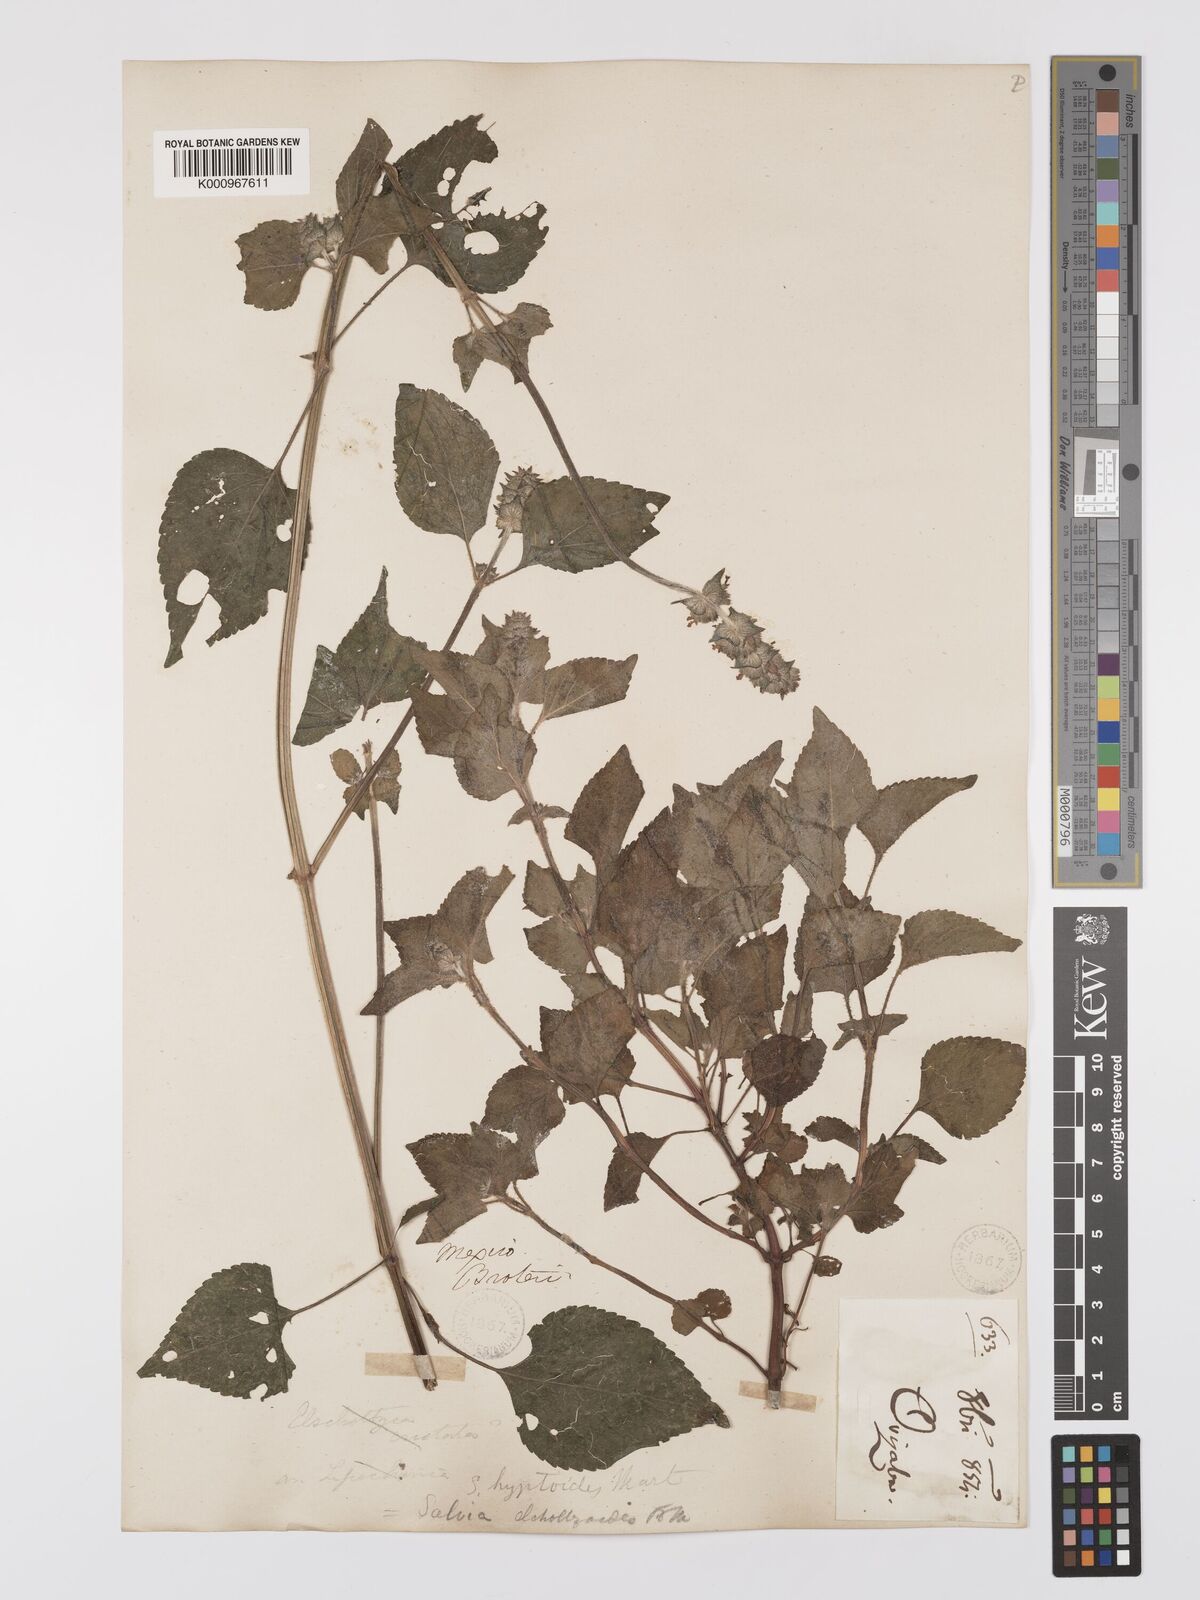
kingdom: Plantae
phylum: Tracheophyta
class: Magnoliopsida
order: Lamiales
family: Lamiaceae
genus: Salvia
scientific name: Salvia lasiocephala
